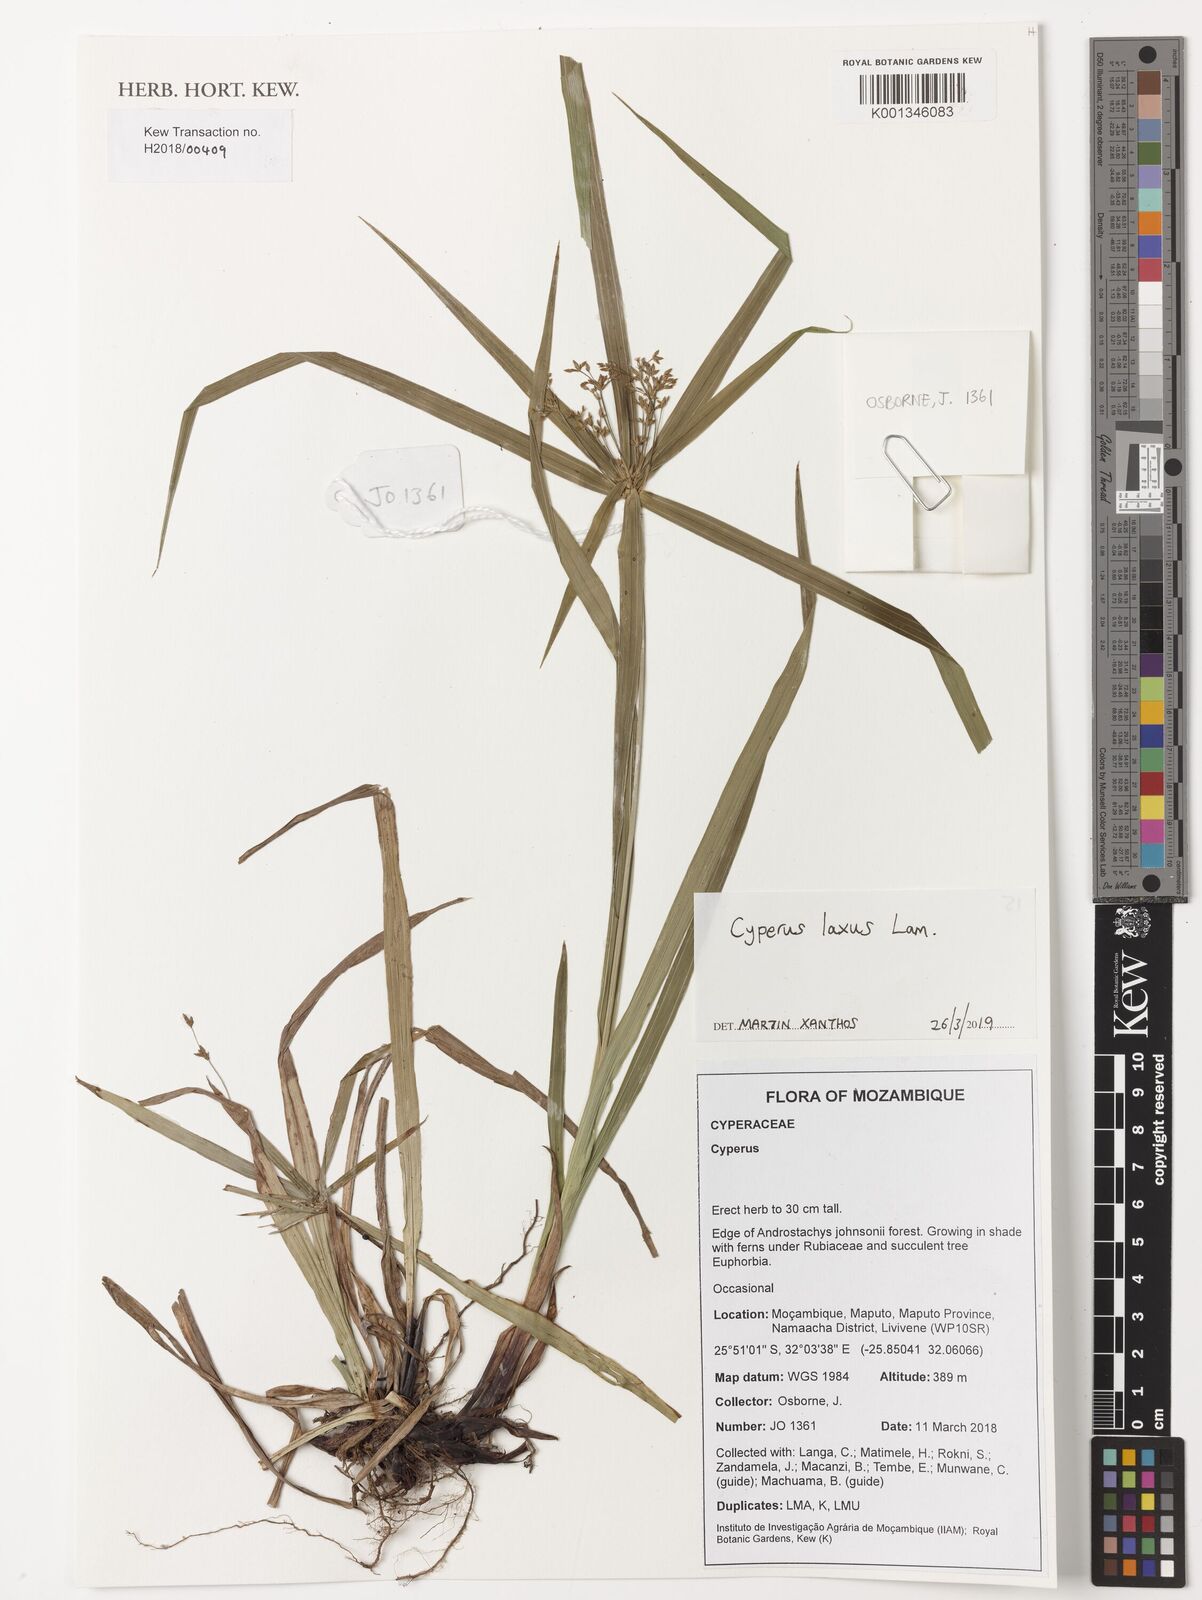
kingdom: Plantae
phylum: Tracheophyta
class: Liliopsida
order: Poales
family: Cyperaceae
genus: Cyperus
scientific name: Cyperus laxus
